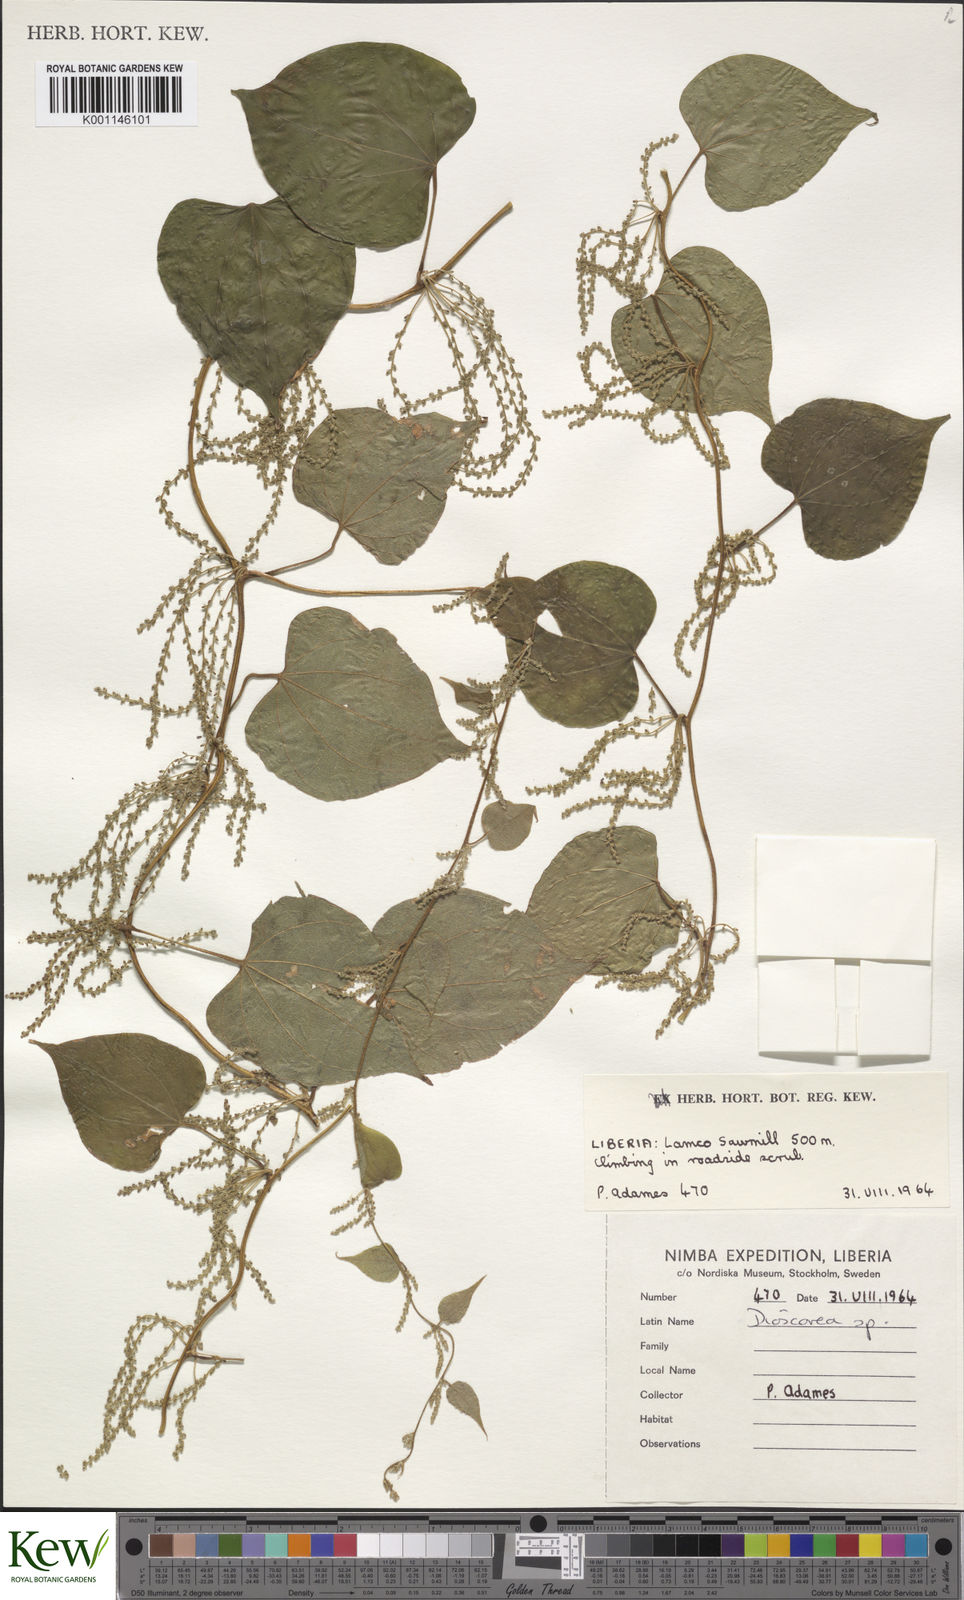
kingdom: Plantae
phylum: Tracheophyta
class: Liliopsida
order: Dioscoreales
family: Dioscoreaceae
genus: Dioscorea
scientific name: Dioscorea
